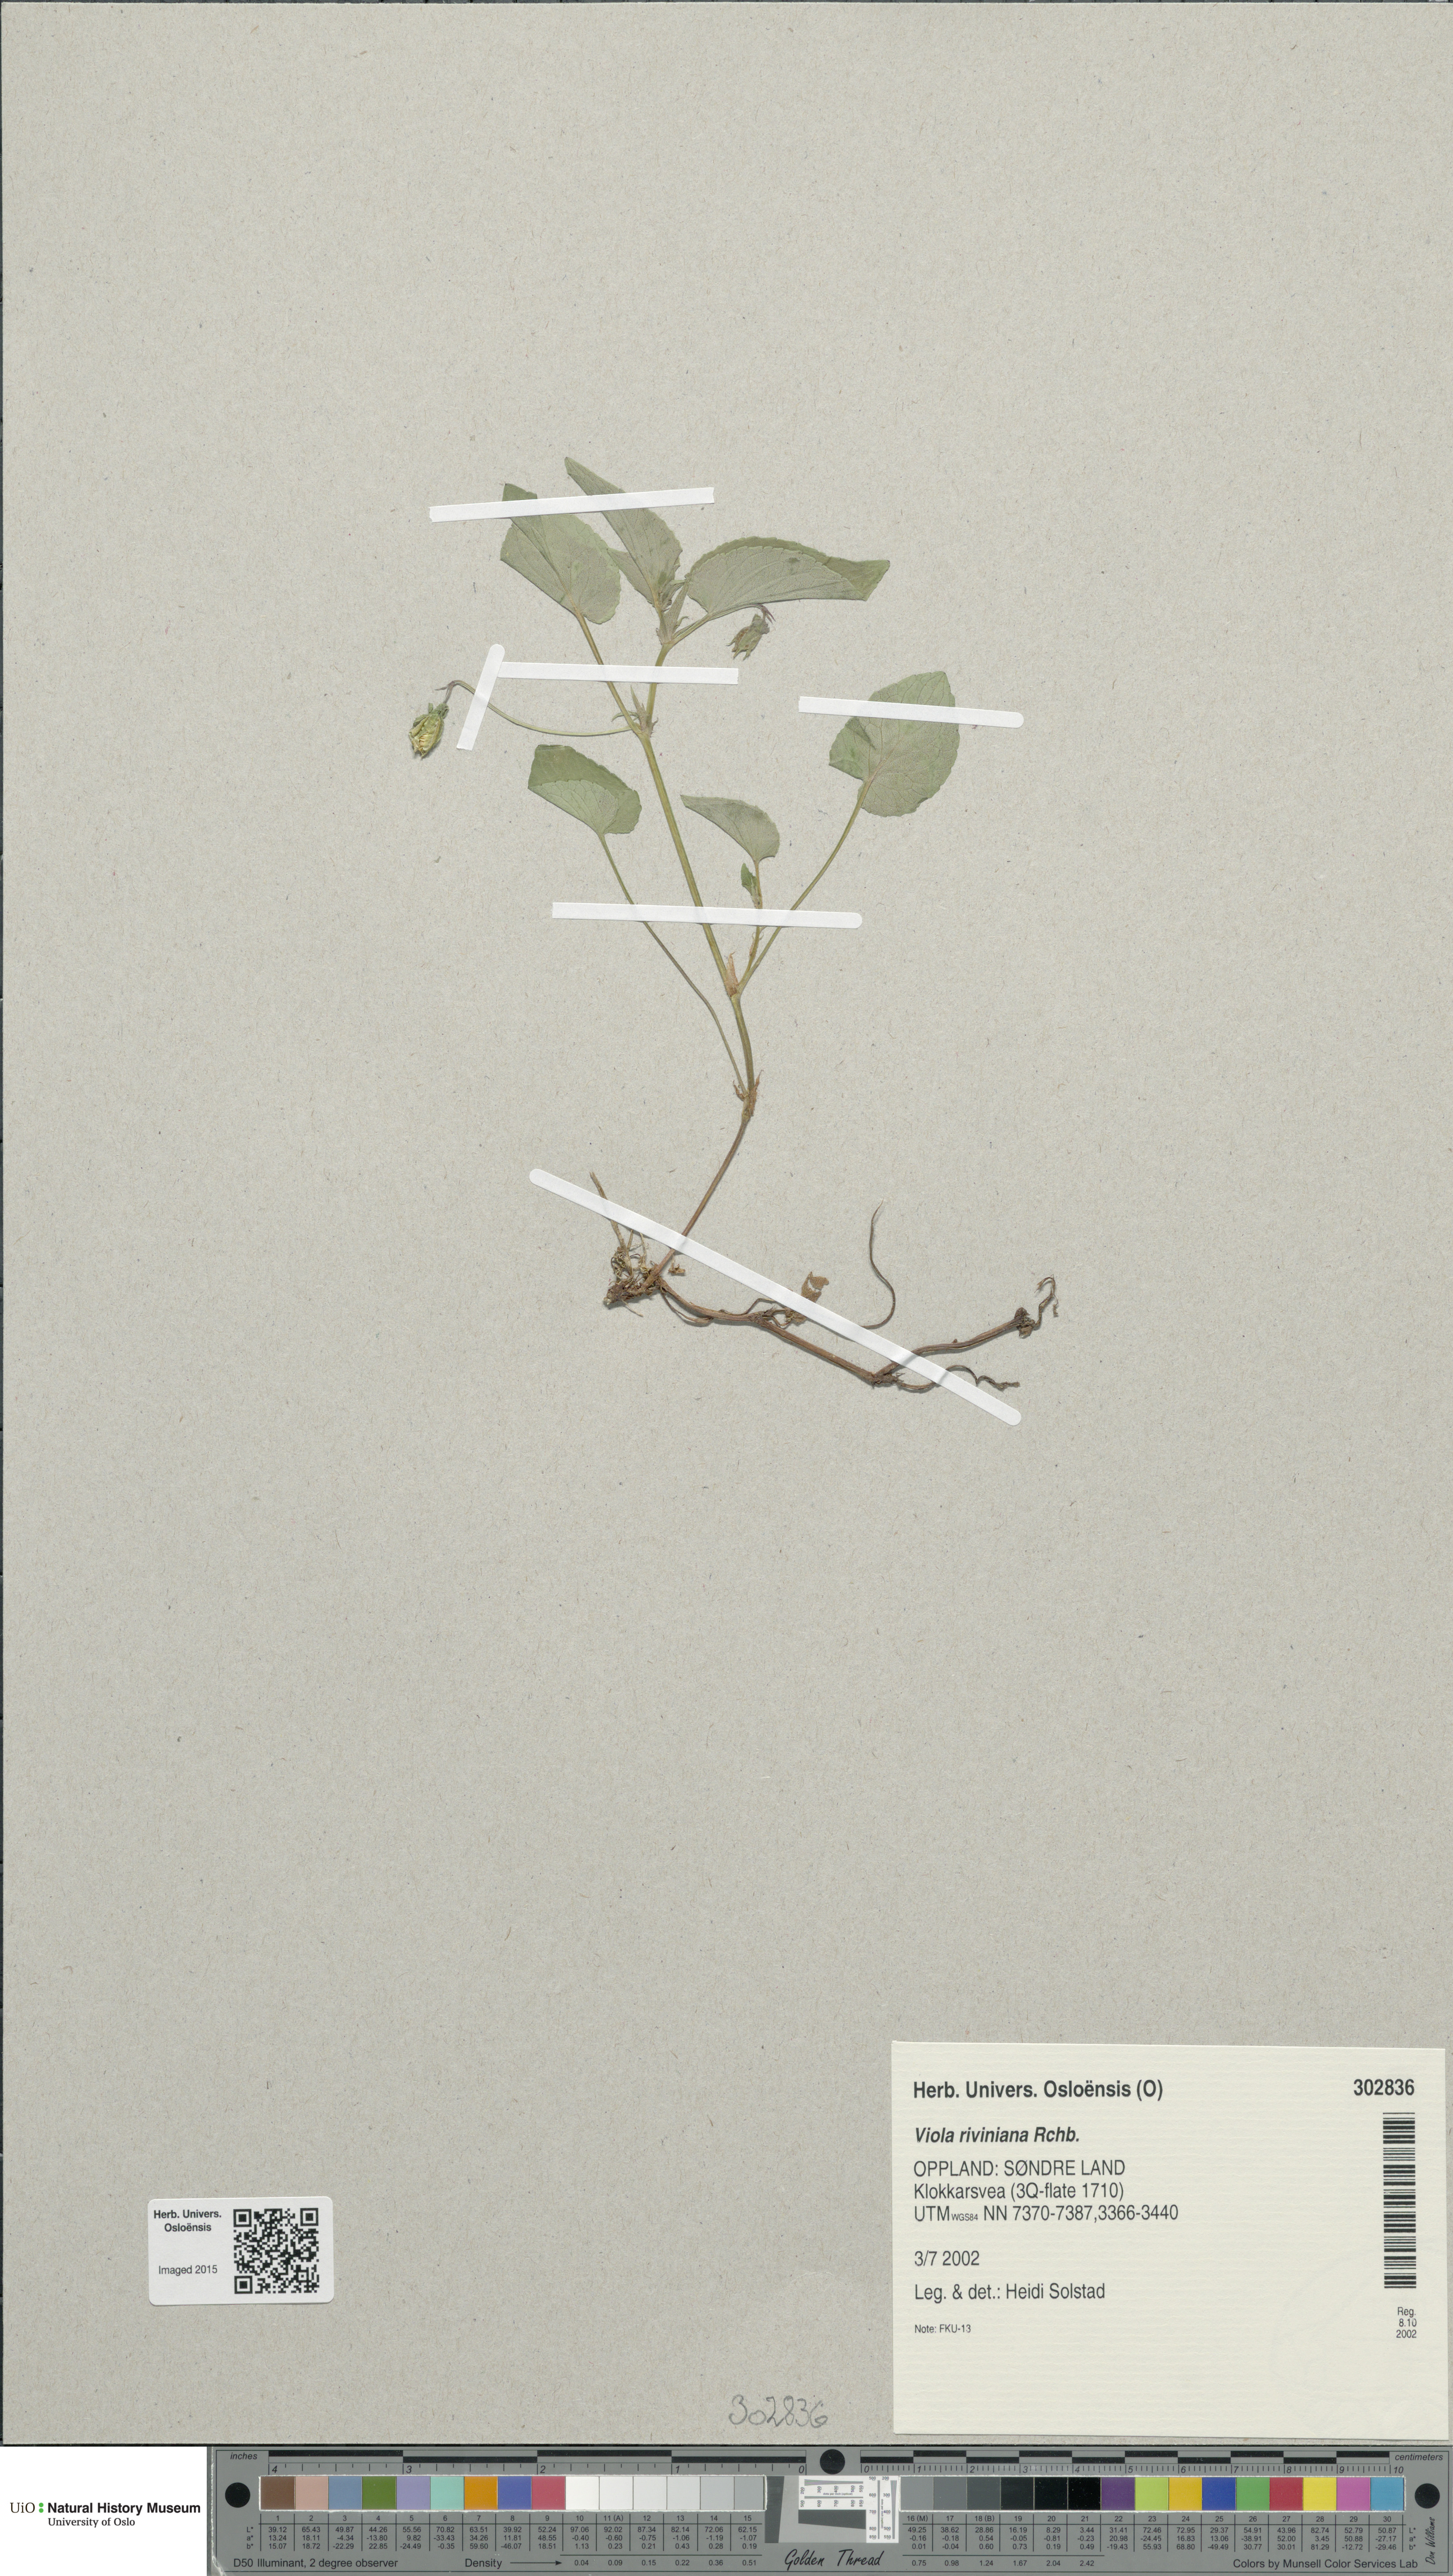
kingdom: Plantae
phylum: Tracheophyta
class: Magnoliopsida
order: Malpighiales
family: Violaceae
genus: Viola
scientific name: Viola riviniana
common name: Common dog-violet
